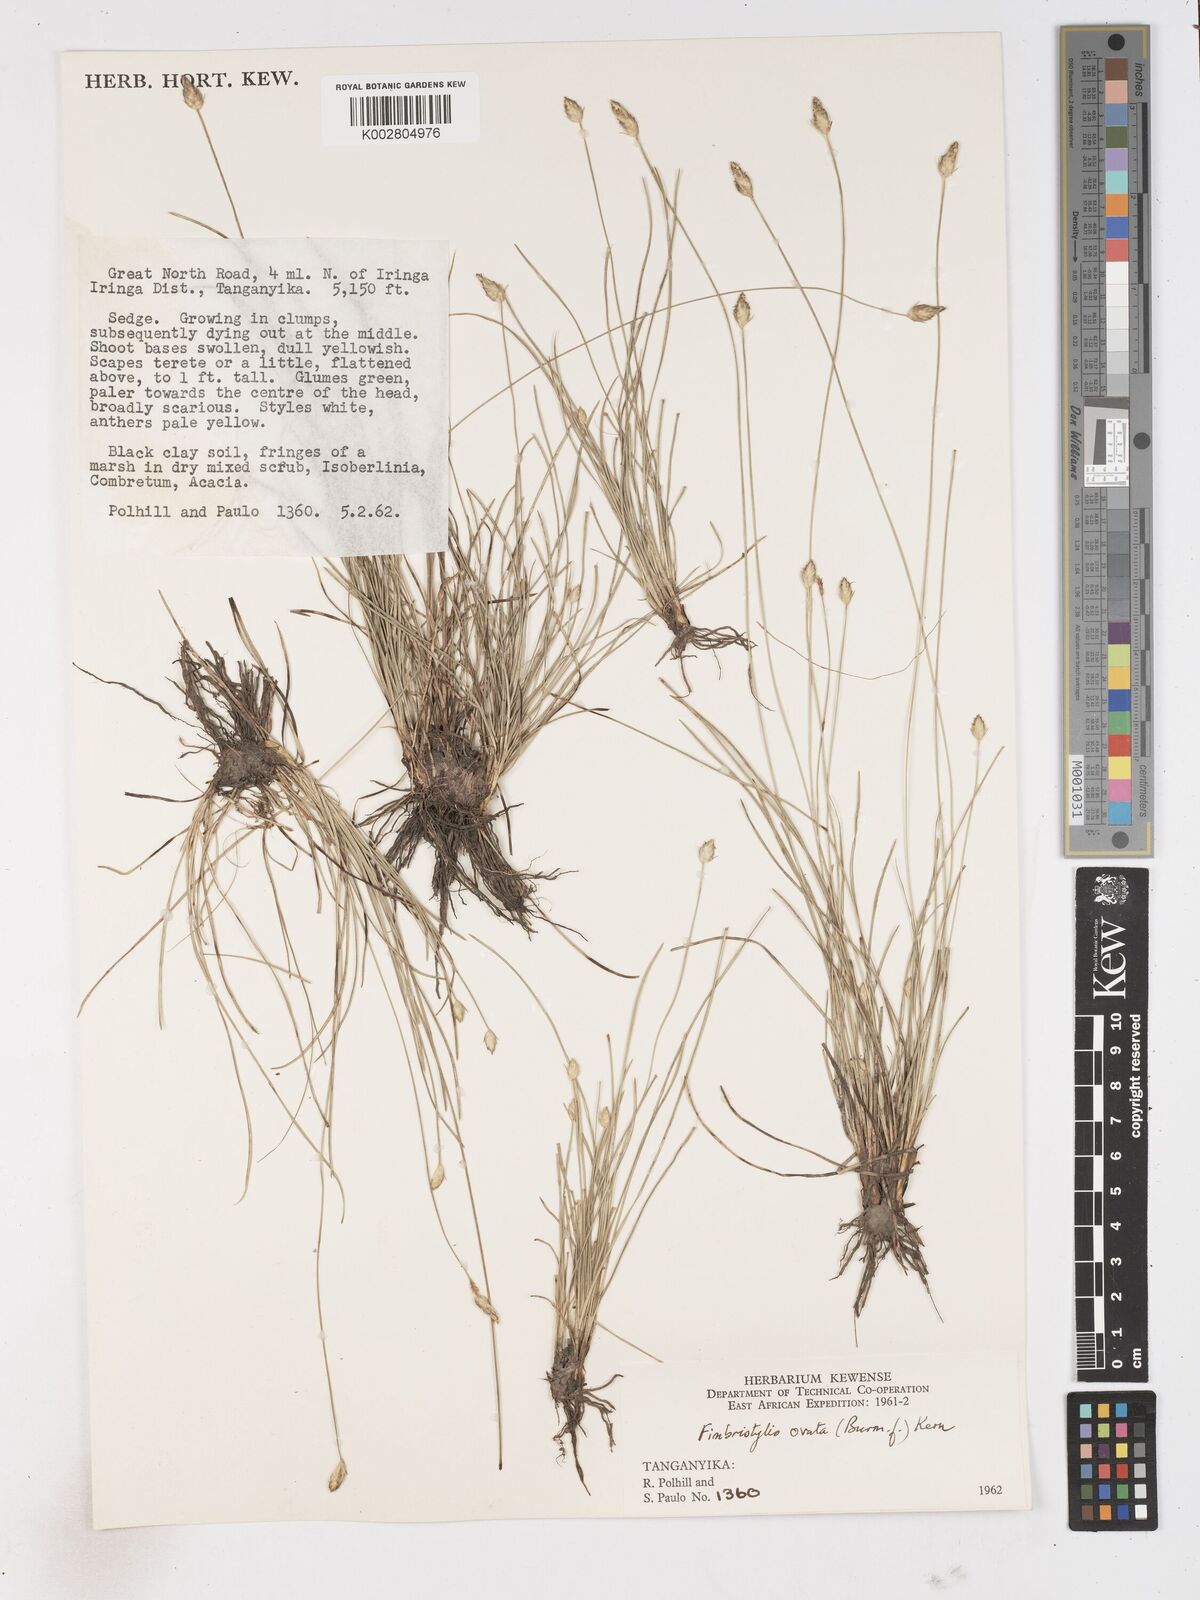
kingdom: Plantae
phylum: Tracheophyta
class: Liliopsida
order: Poales
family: Cyperaceae
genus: Abildgaardia
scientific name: Abildgaardia ovata
